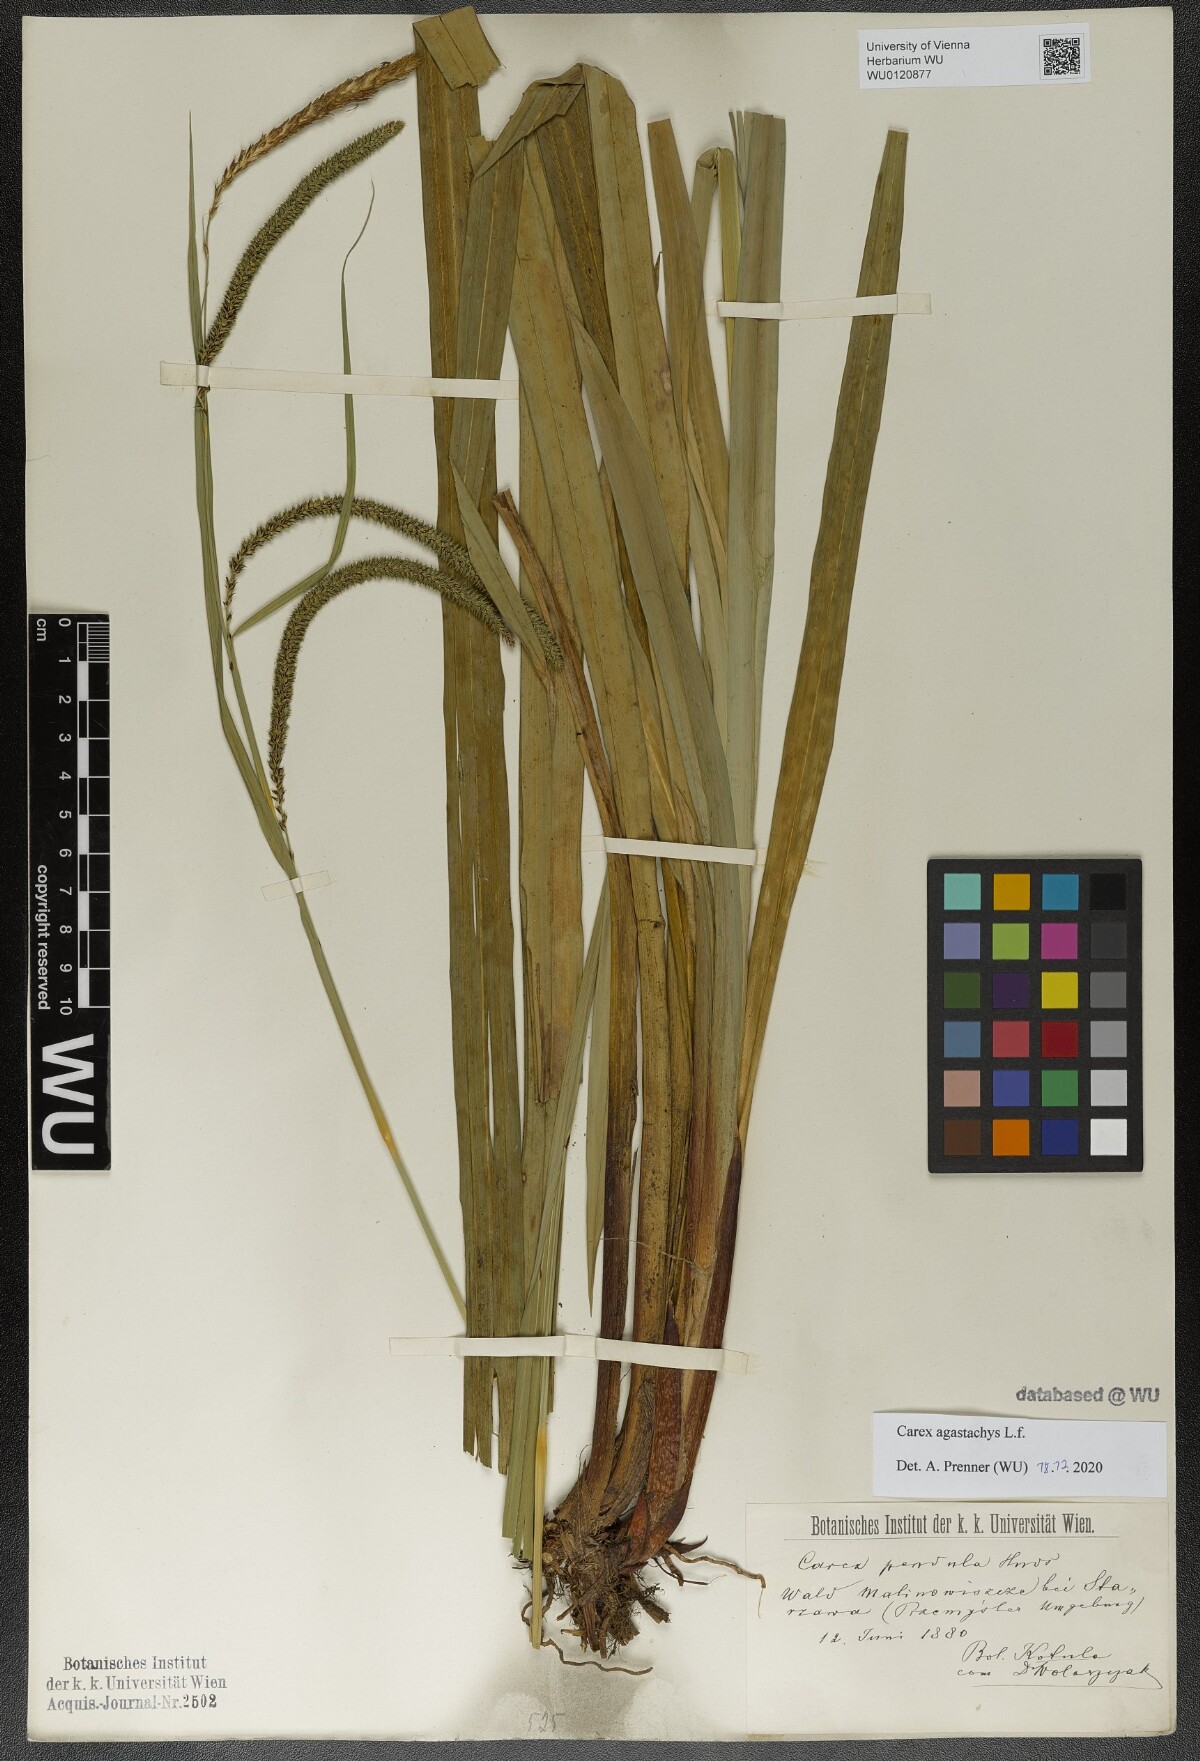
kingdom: Plantae
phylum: Tracheophyta
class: Liliopsida
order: Poales
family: Cyperaceae
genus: Carex
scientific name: Carex agastachys
